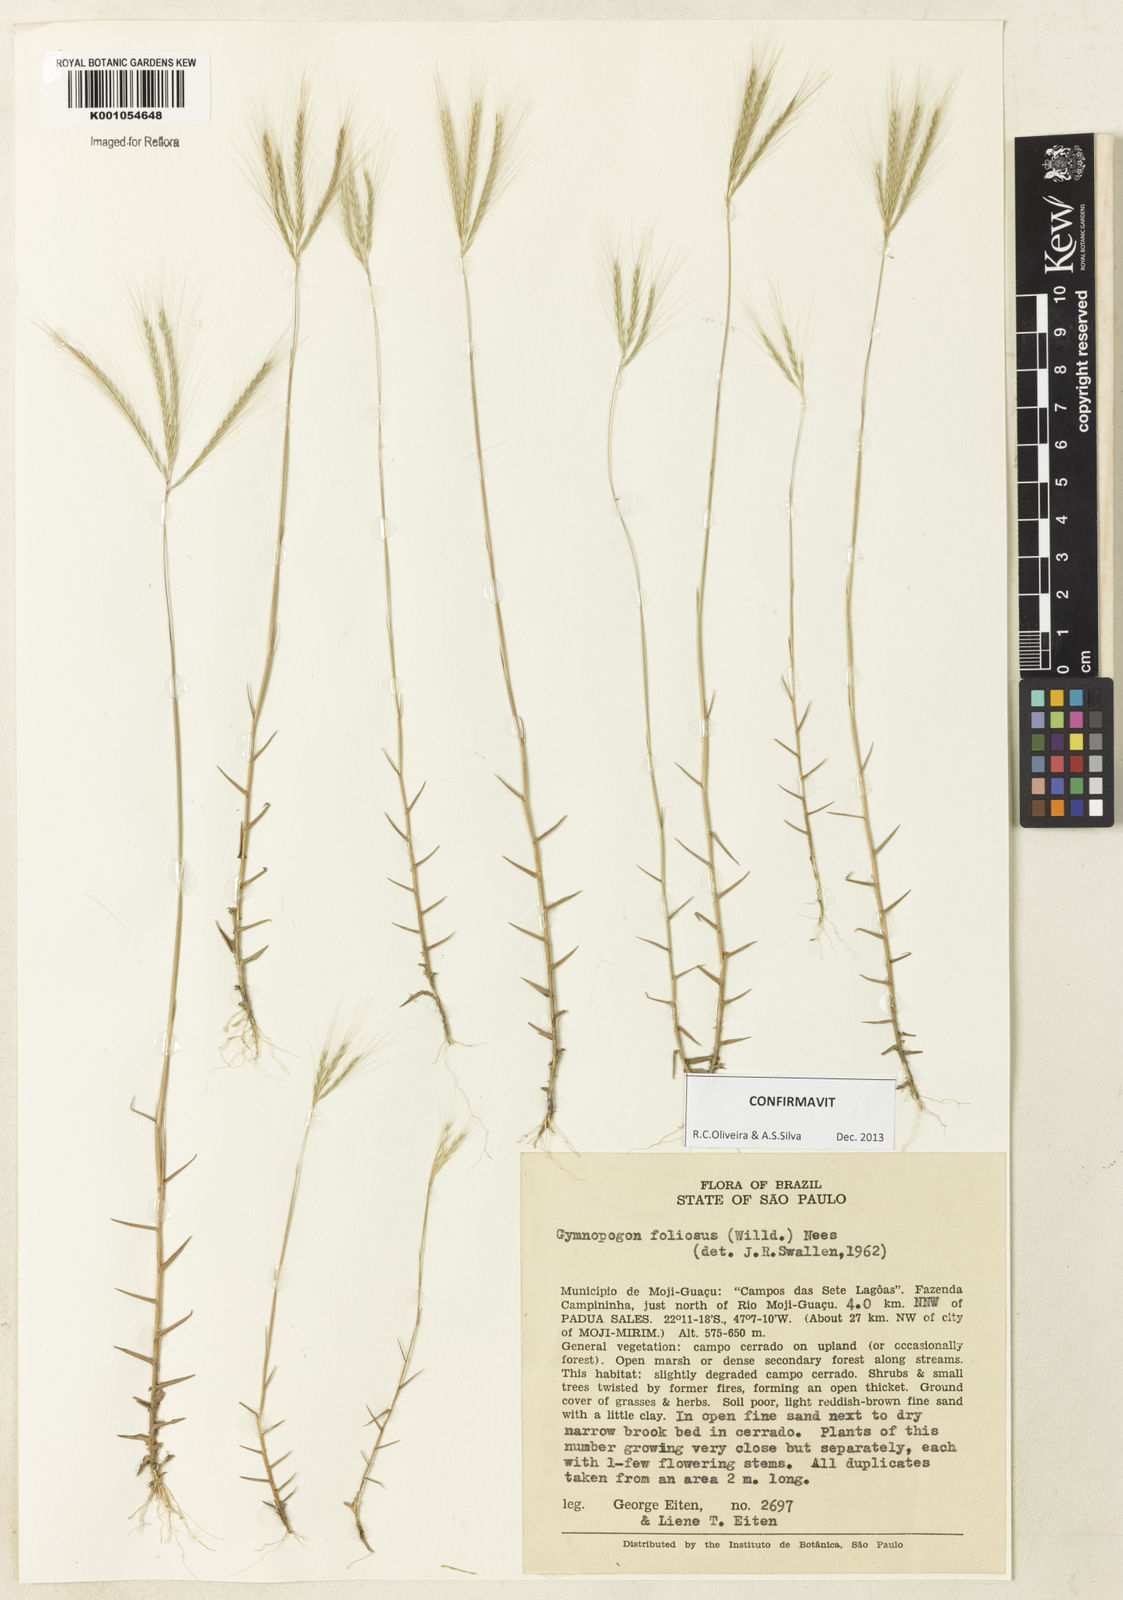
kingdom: Plantae
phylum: Tracheophyta
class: Liliopsida
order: Poales
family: Poaceae
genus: Gymnopogon
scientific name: Gymnopogon foliosus
